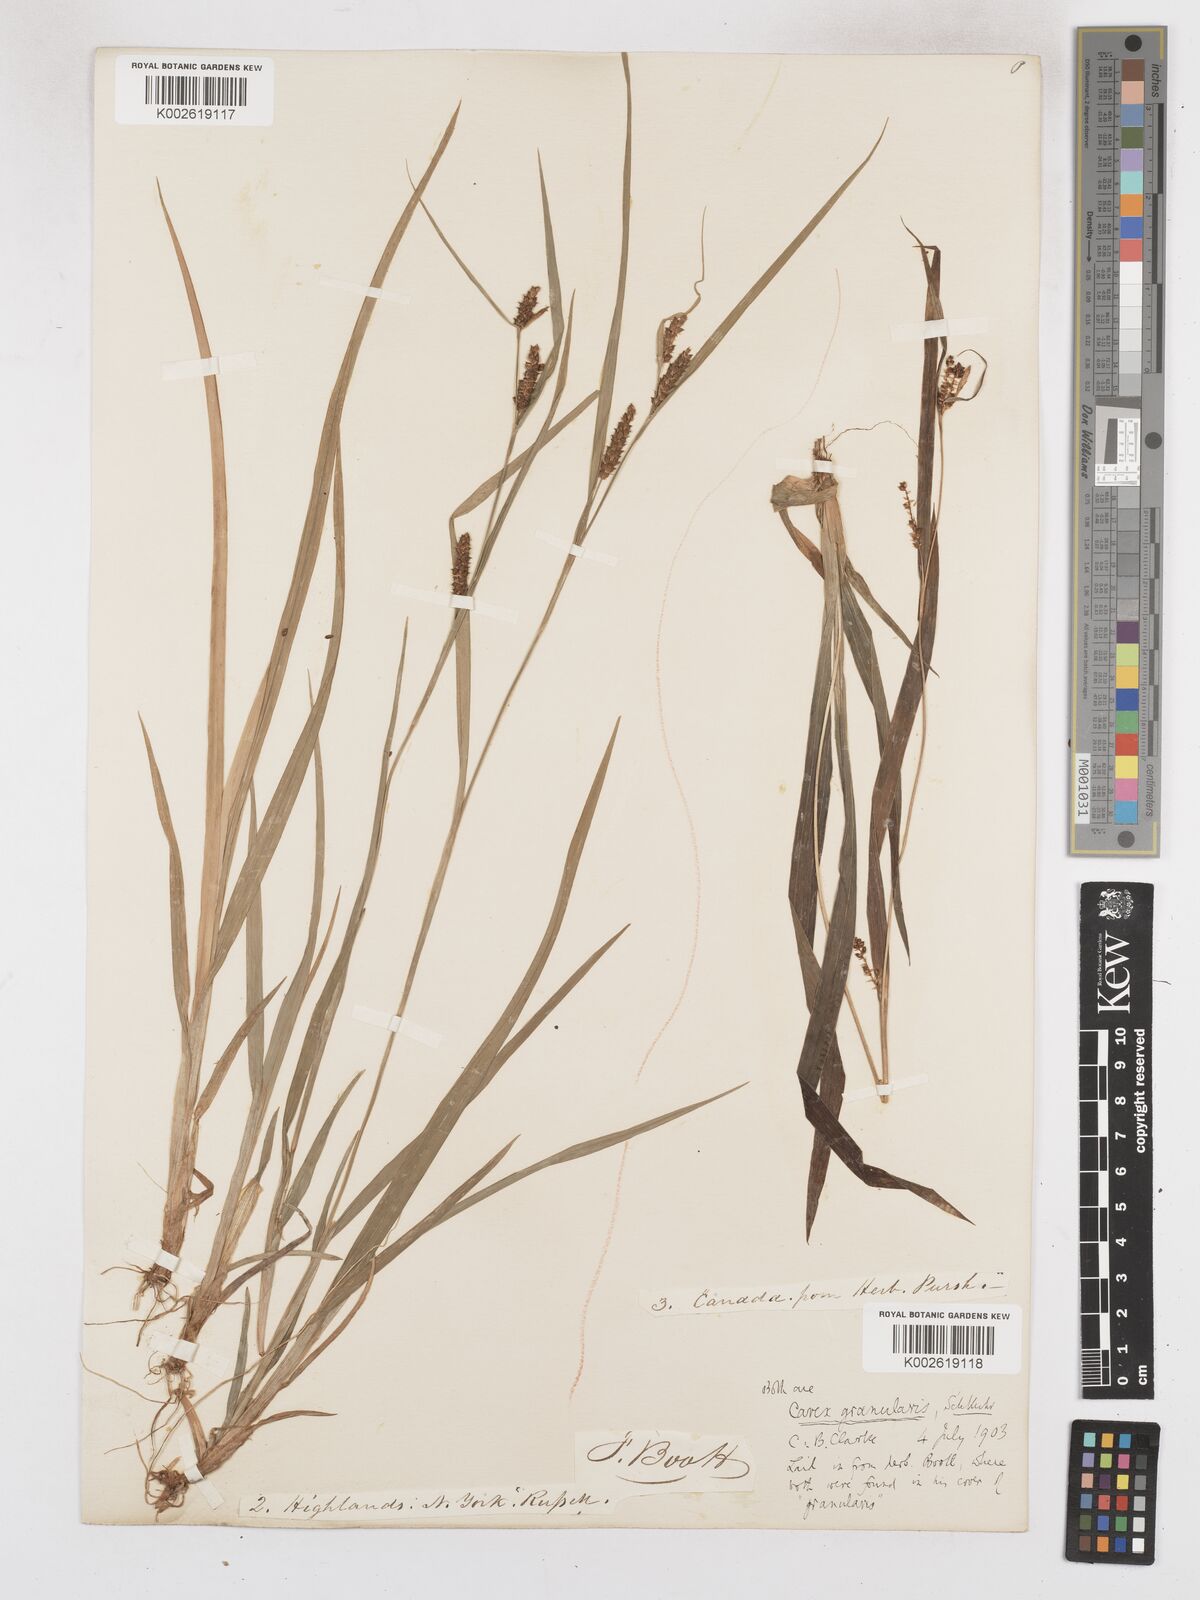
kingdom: Plantae
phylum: Tracheophyta
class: Liliopsida
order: Poales
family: Cyperaceae
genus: Carex
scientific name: Carex granularis
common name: Granular sedge
